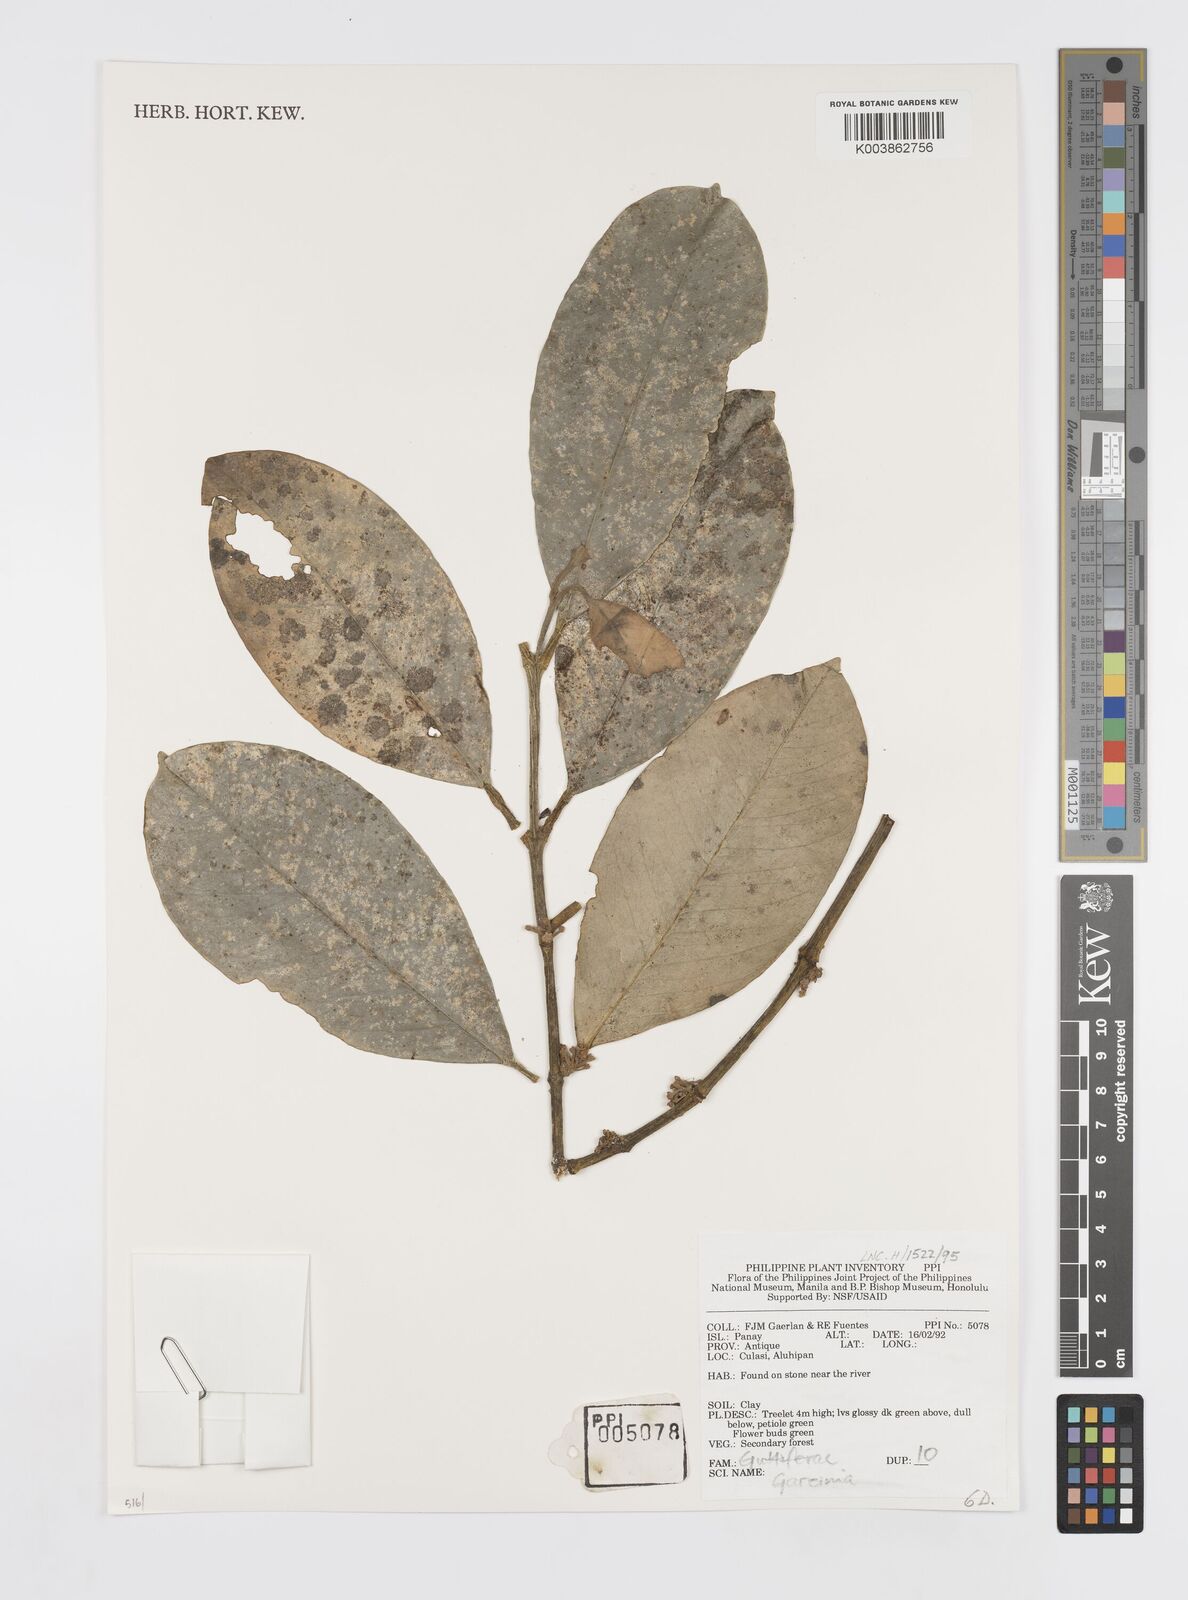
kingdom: Plantae
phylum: Tracheophyta
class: Magnoliopsida
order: Malpighiales
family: Clusiaceae
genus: Garcinia
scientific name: Garcinia
